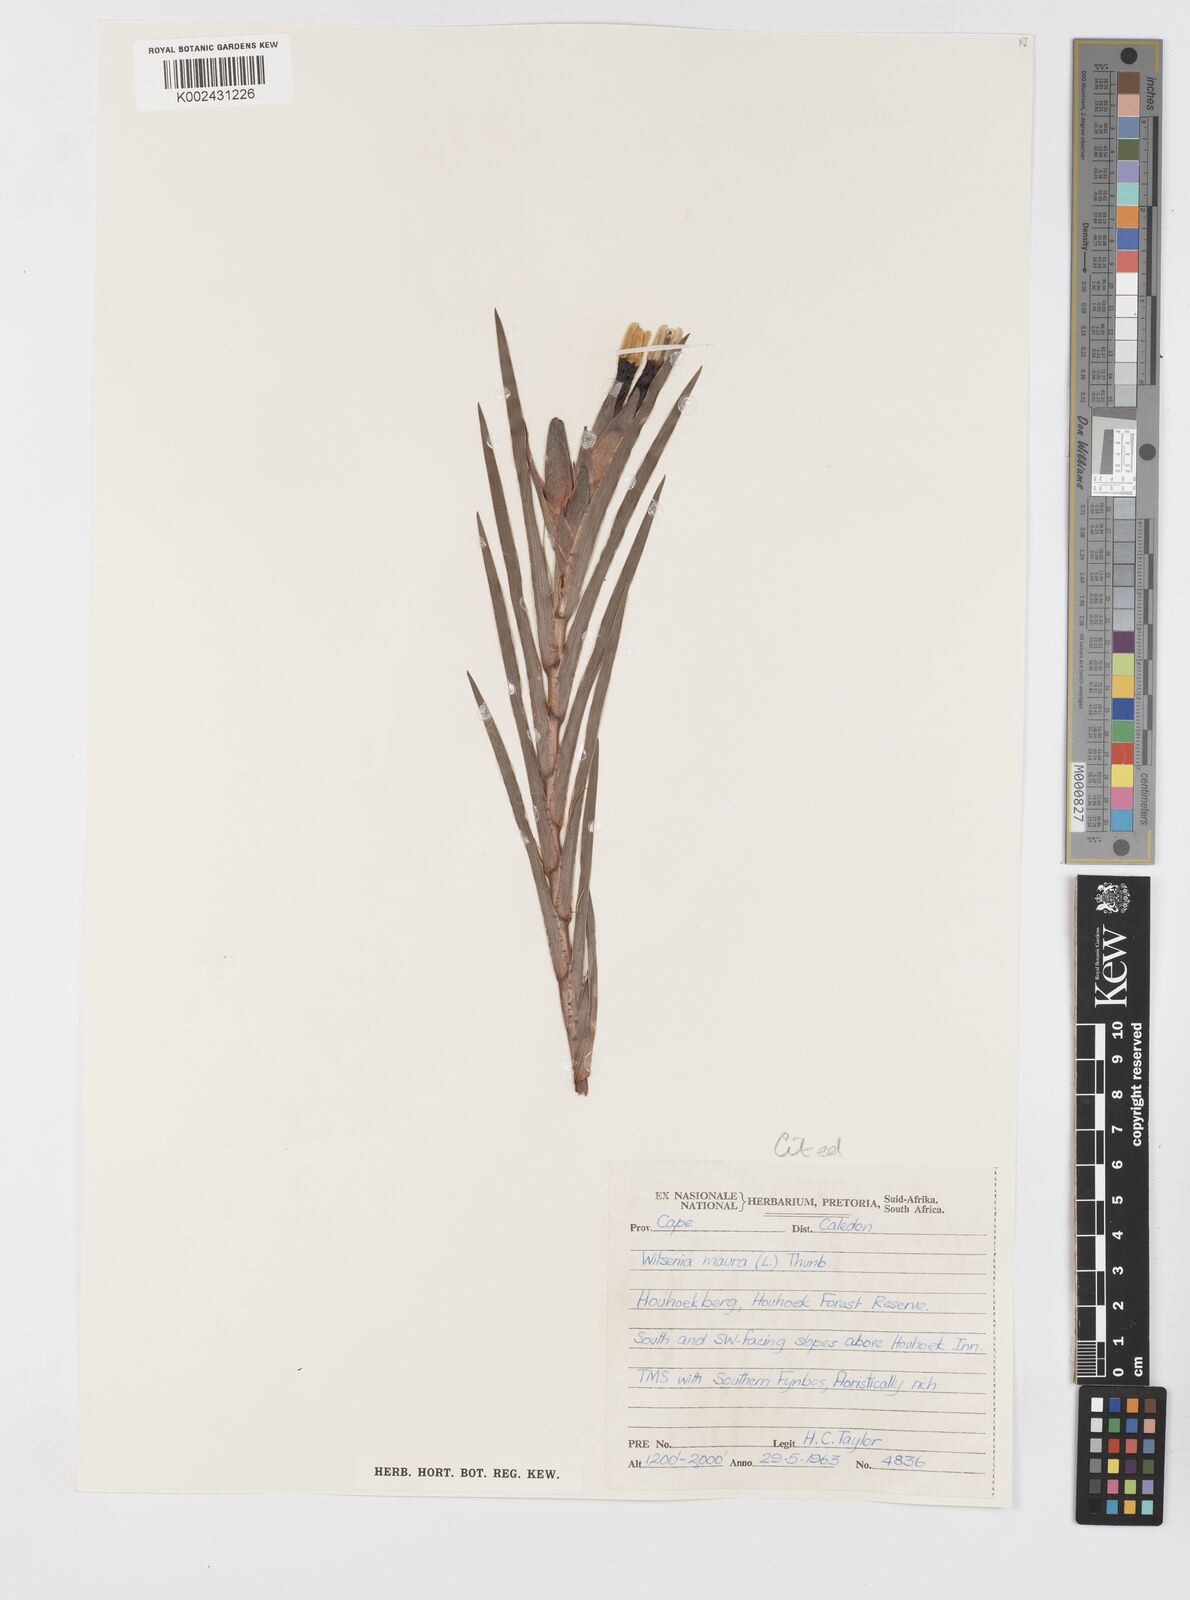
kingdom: Plantae
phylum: Tracheophyta
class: Liliopsida
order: Asparagales
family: Iridaceae
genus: Witsenia
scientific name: Witsenia maura
